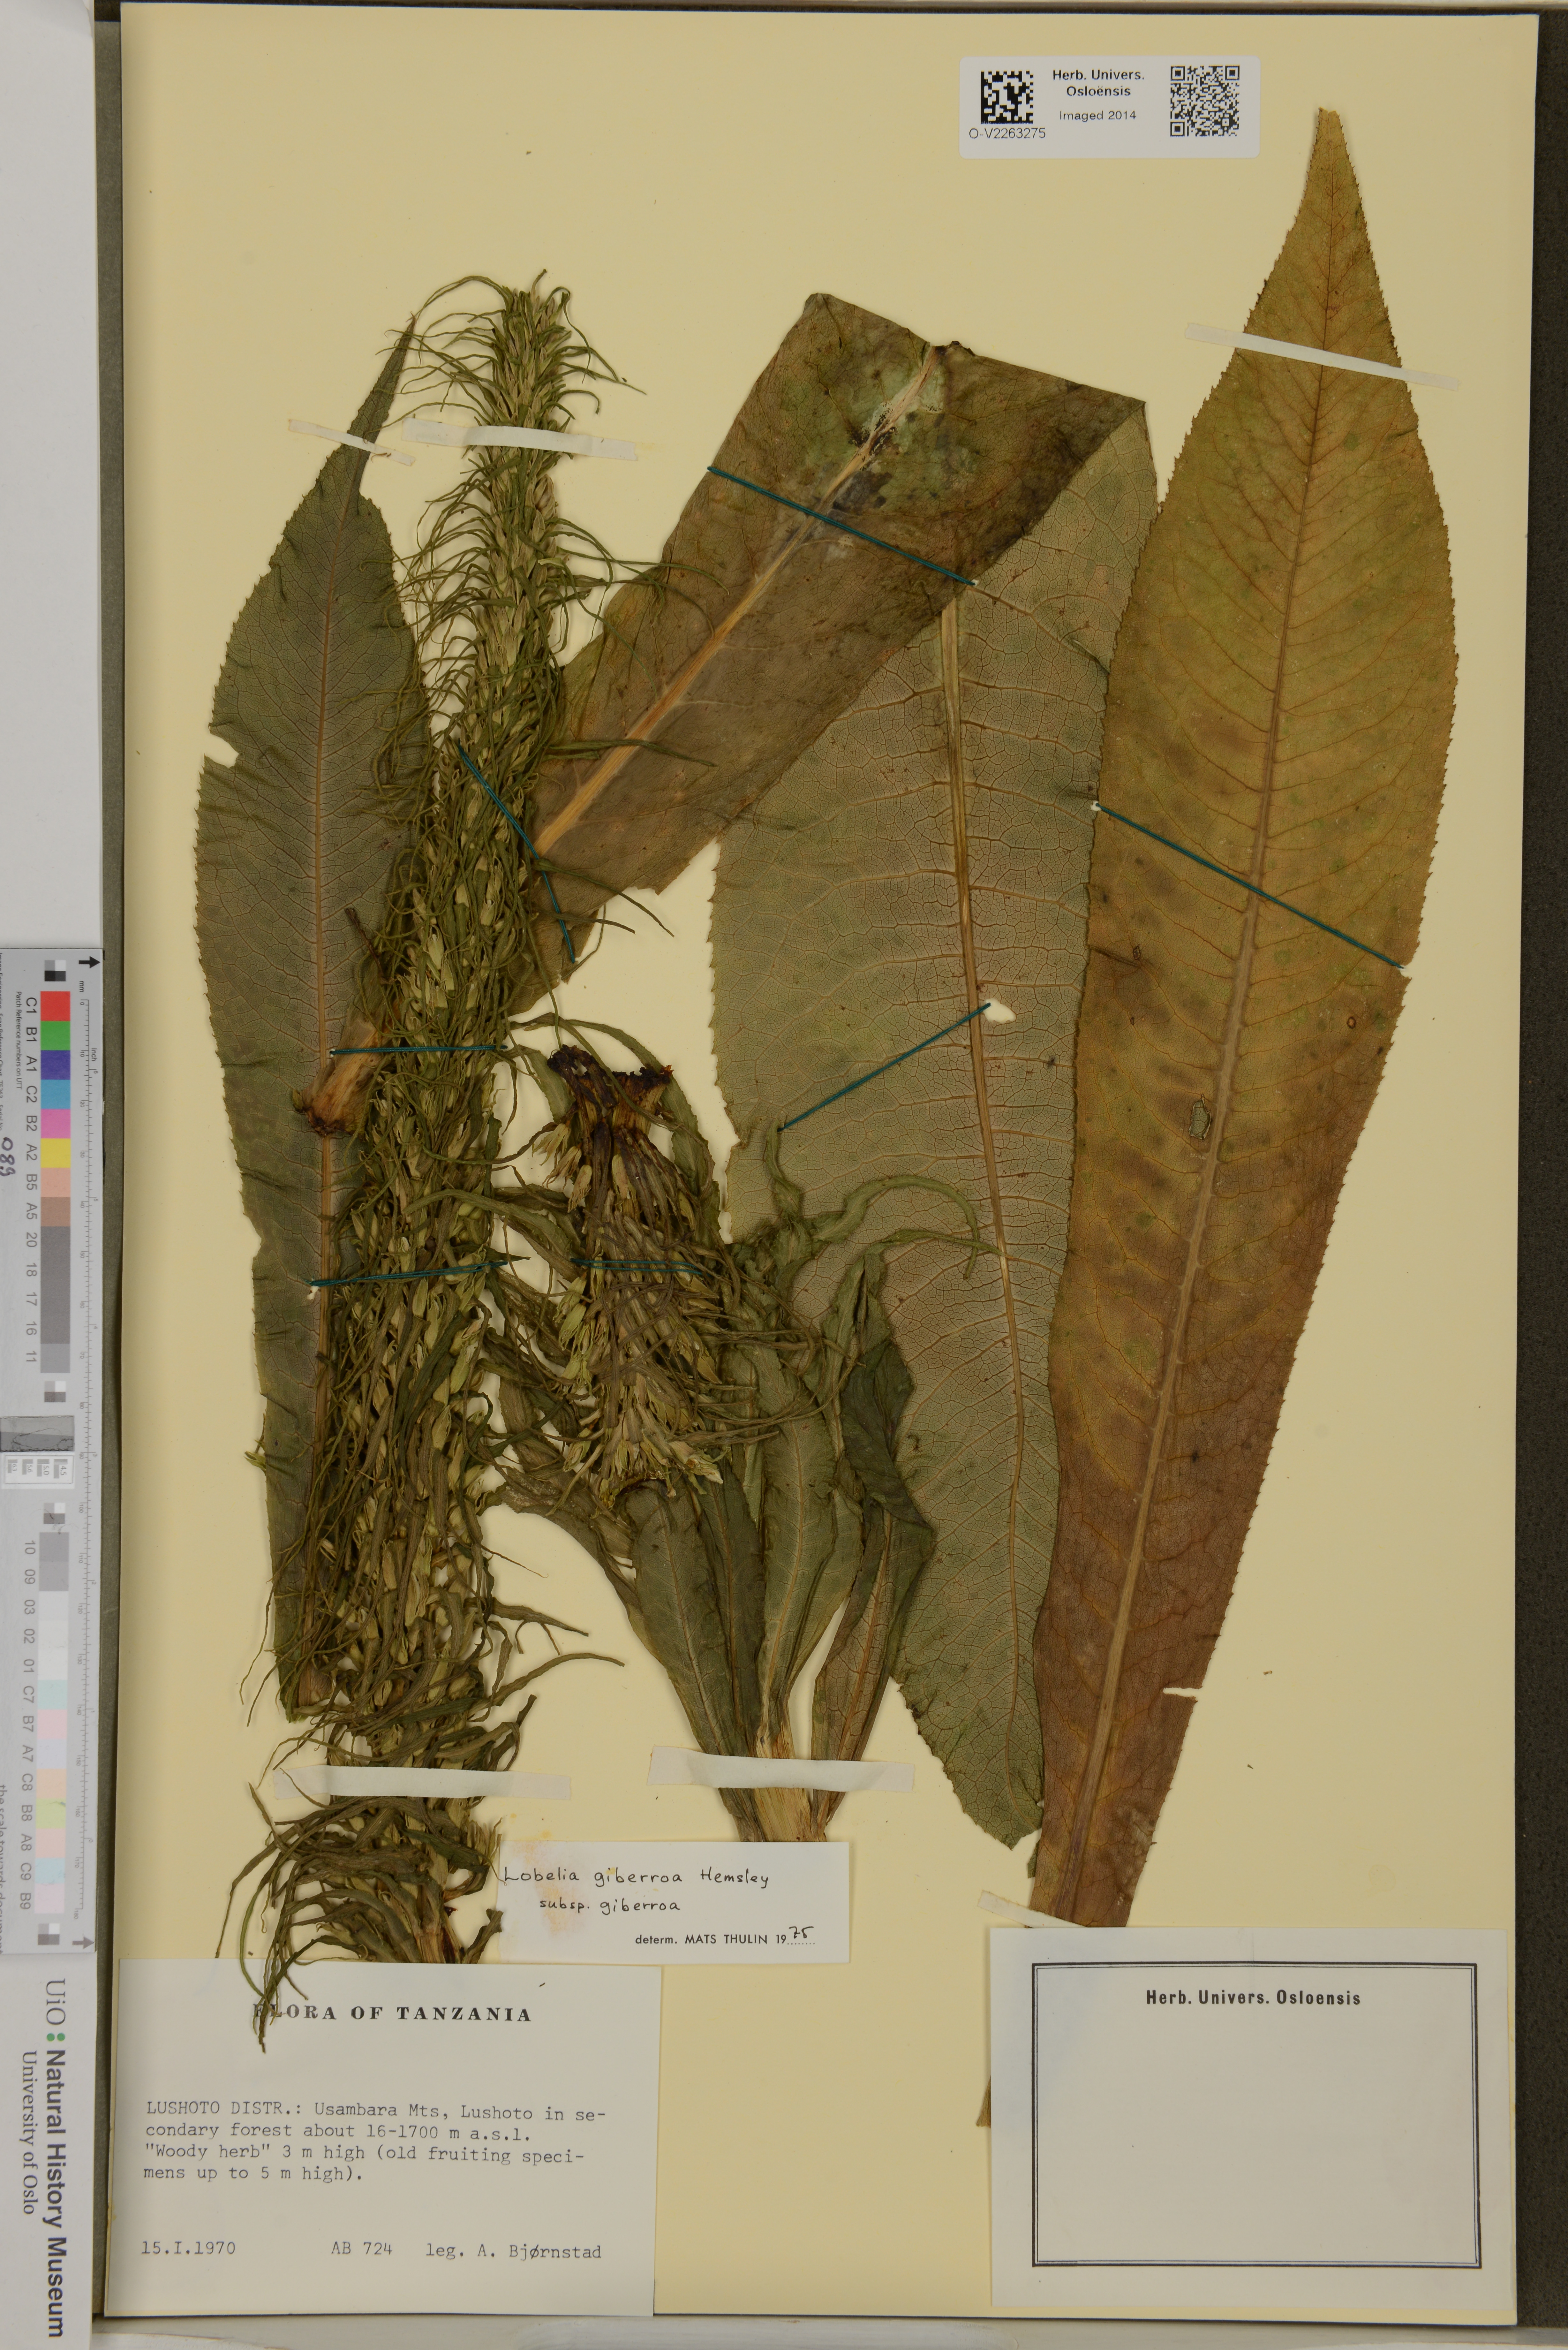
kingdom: Plantae
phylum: Tracheophyta
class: Magnoliopsida
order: Asterales
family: Campanulaceae
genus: Lobelia
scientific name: Lobelia giberroa
